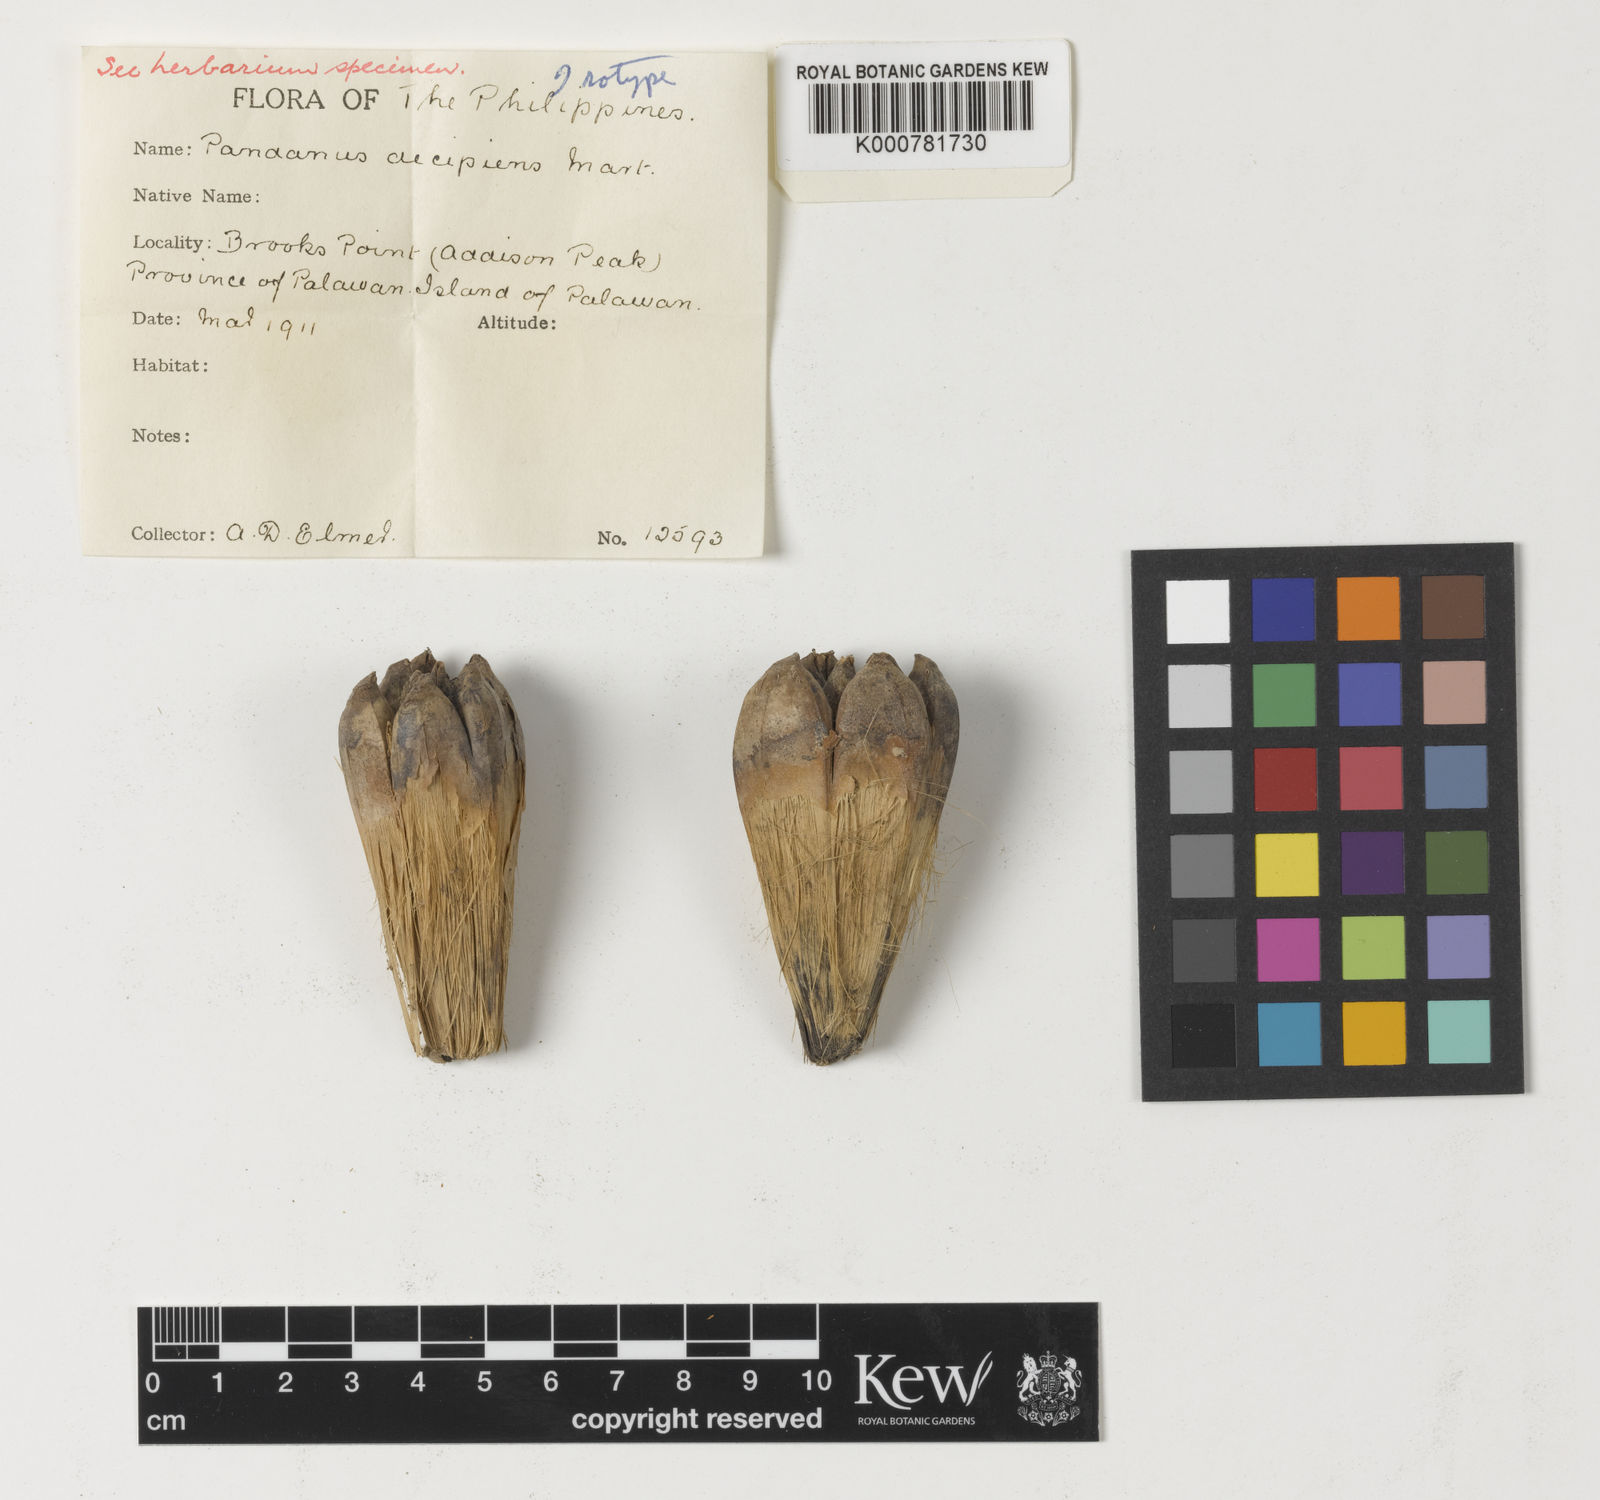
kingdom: Plantae
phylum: Tracheophyta
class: Liliopsida
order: Pandanales
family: Pandanaceae
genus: Pandanus
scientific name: Pandanus
